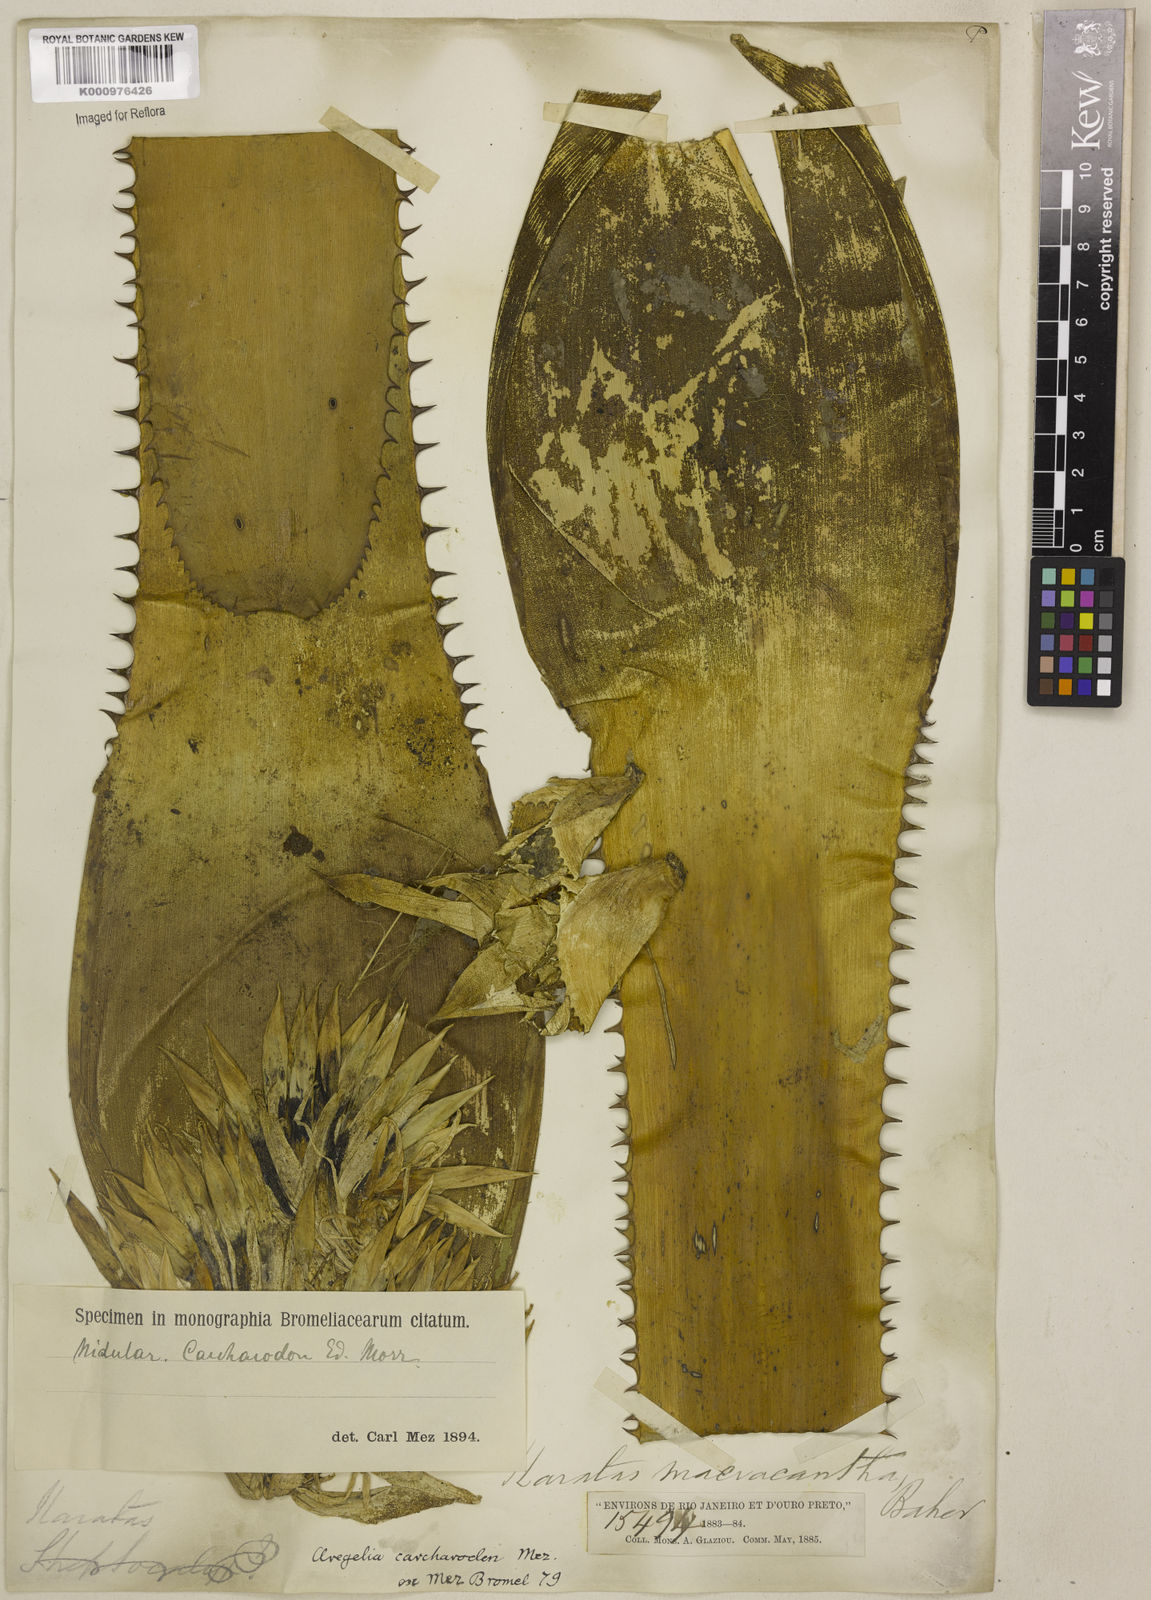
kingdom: Plantae
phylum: Tracheophyta
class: Liliopsida
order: Poales
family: Bromeliaceae
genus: Neoregelia
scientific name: Neoregelia carcharodon
